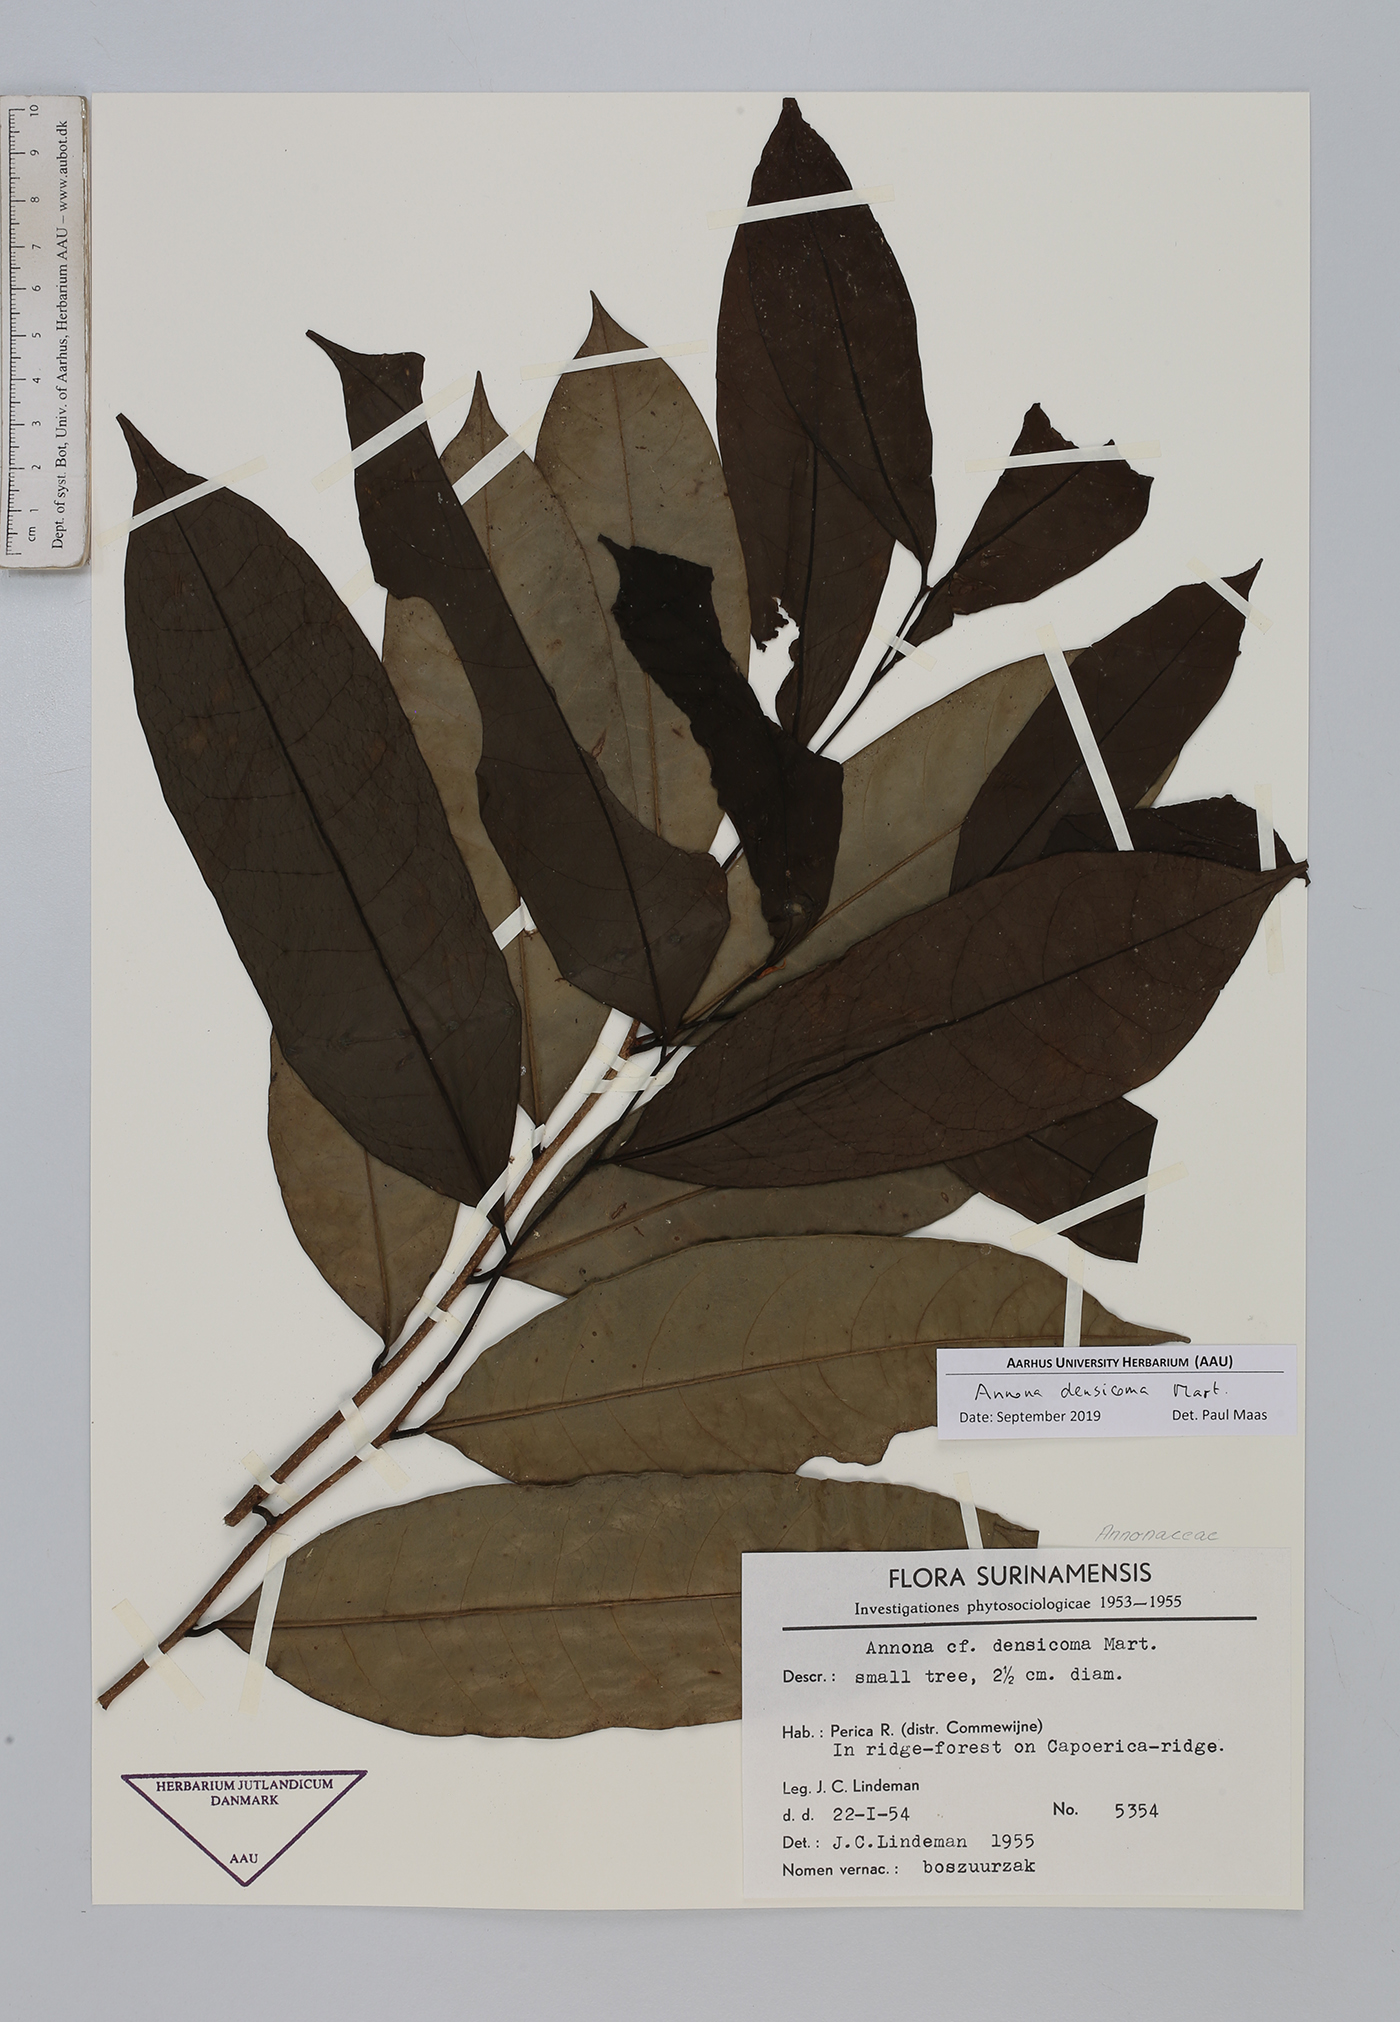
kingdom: Plantae
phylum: Tracheophyta
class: Magnoliopsida
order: Magnoliales
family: Annonaceae
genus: Annona
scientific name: Annona densicoma
